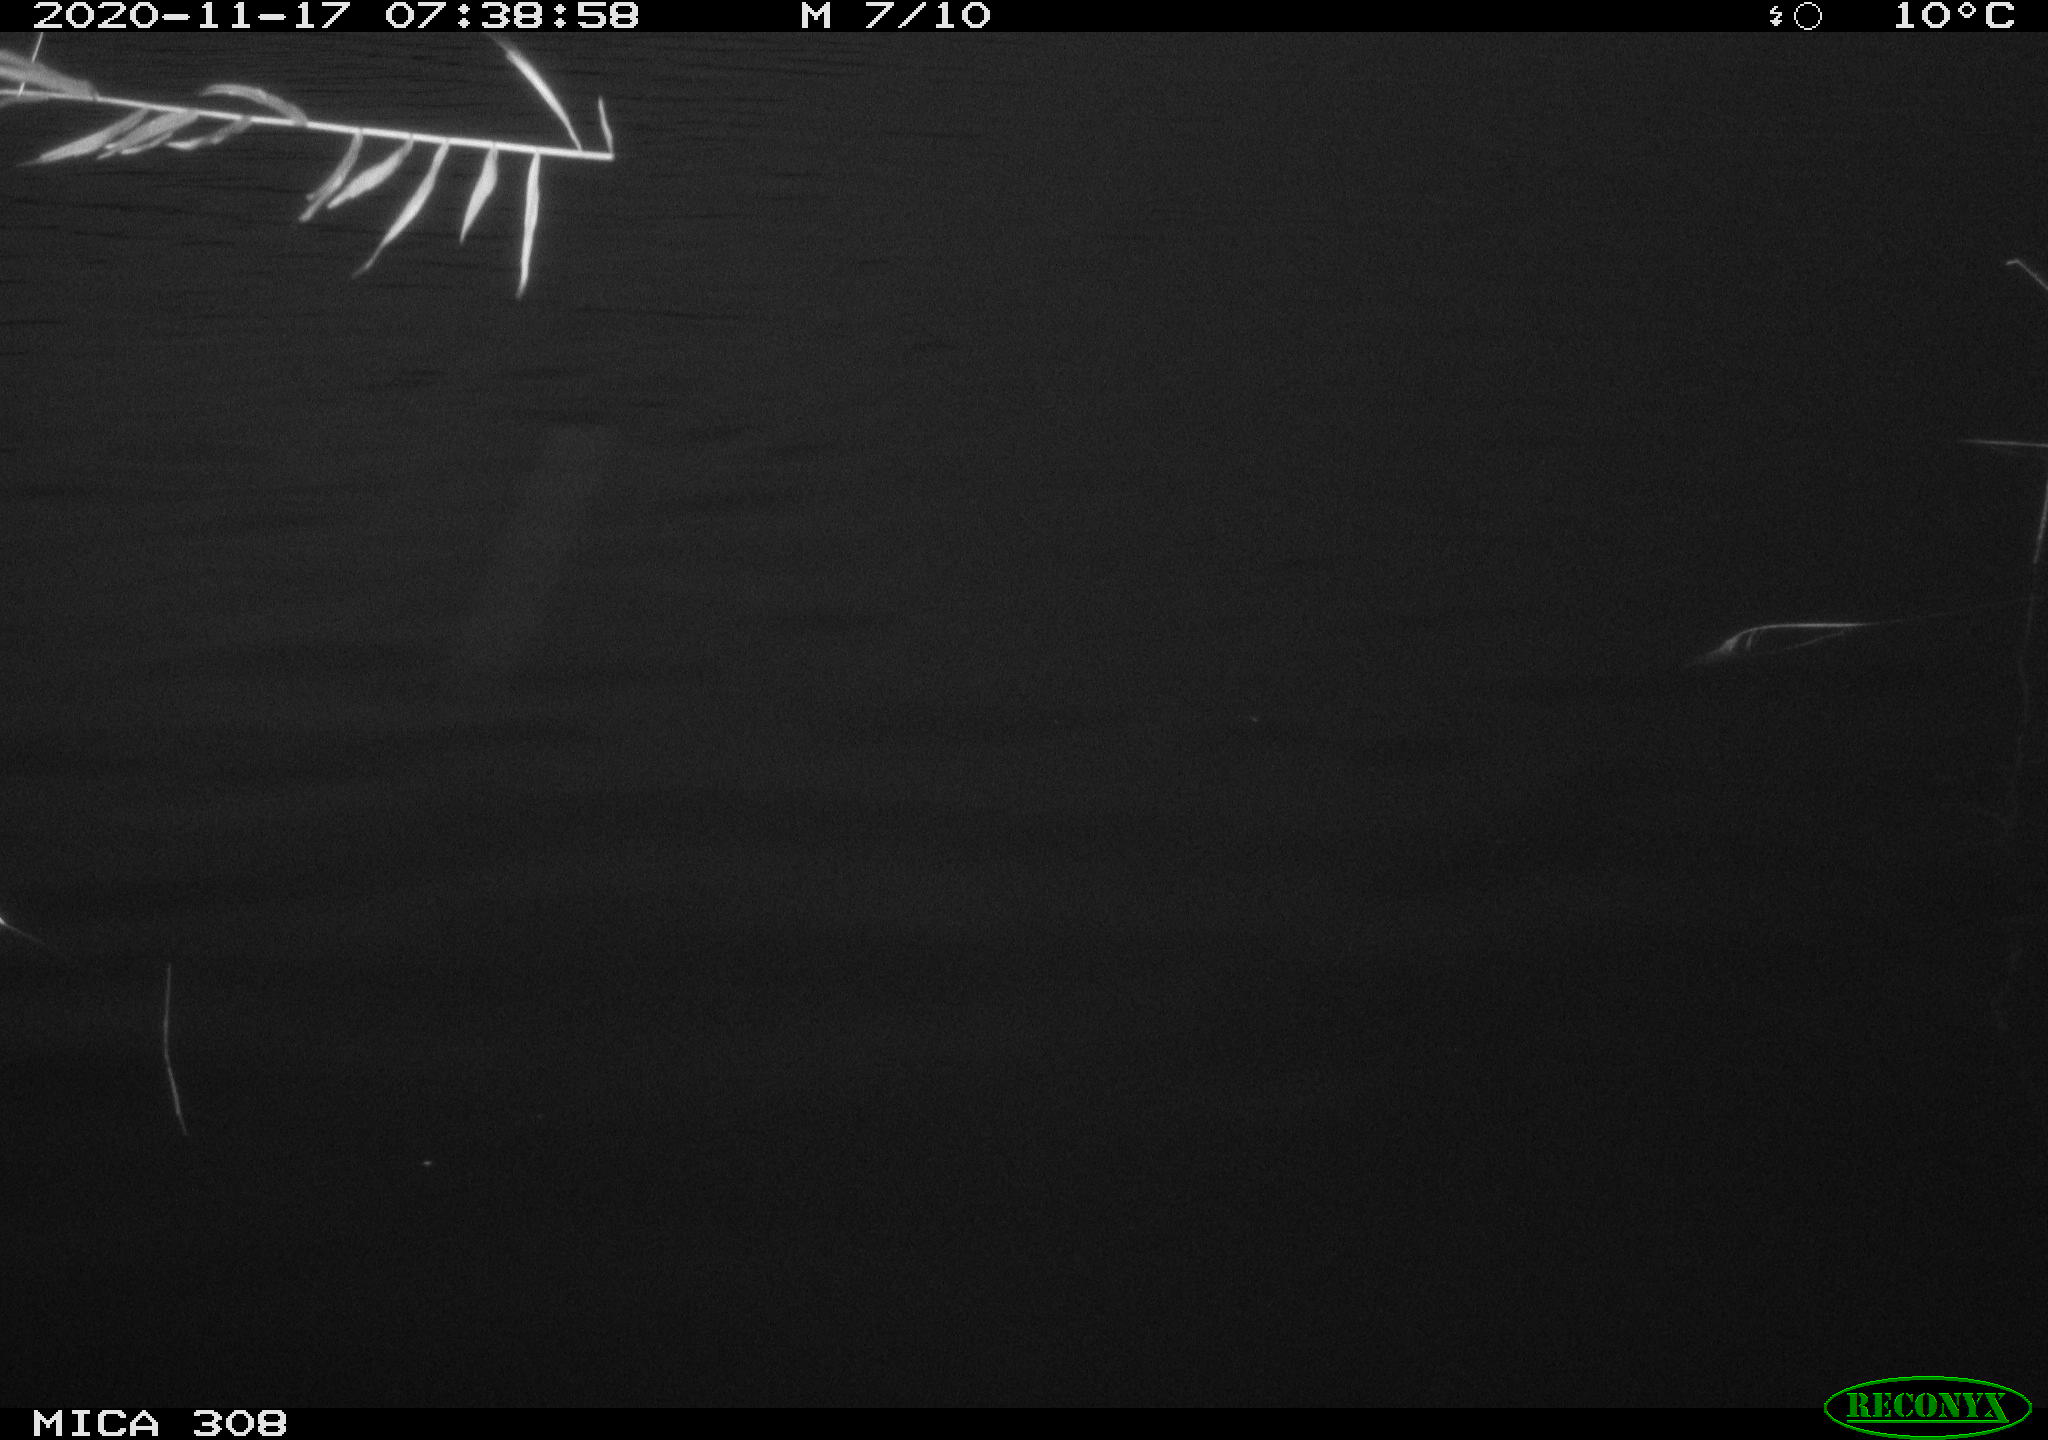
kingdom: Animalia
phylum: Chordata
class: Aves
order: Anseriformes
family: Anatidae
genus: Anas
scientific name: Anas platyrhynchos
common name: Mallard
